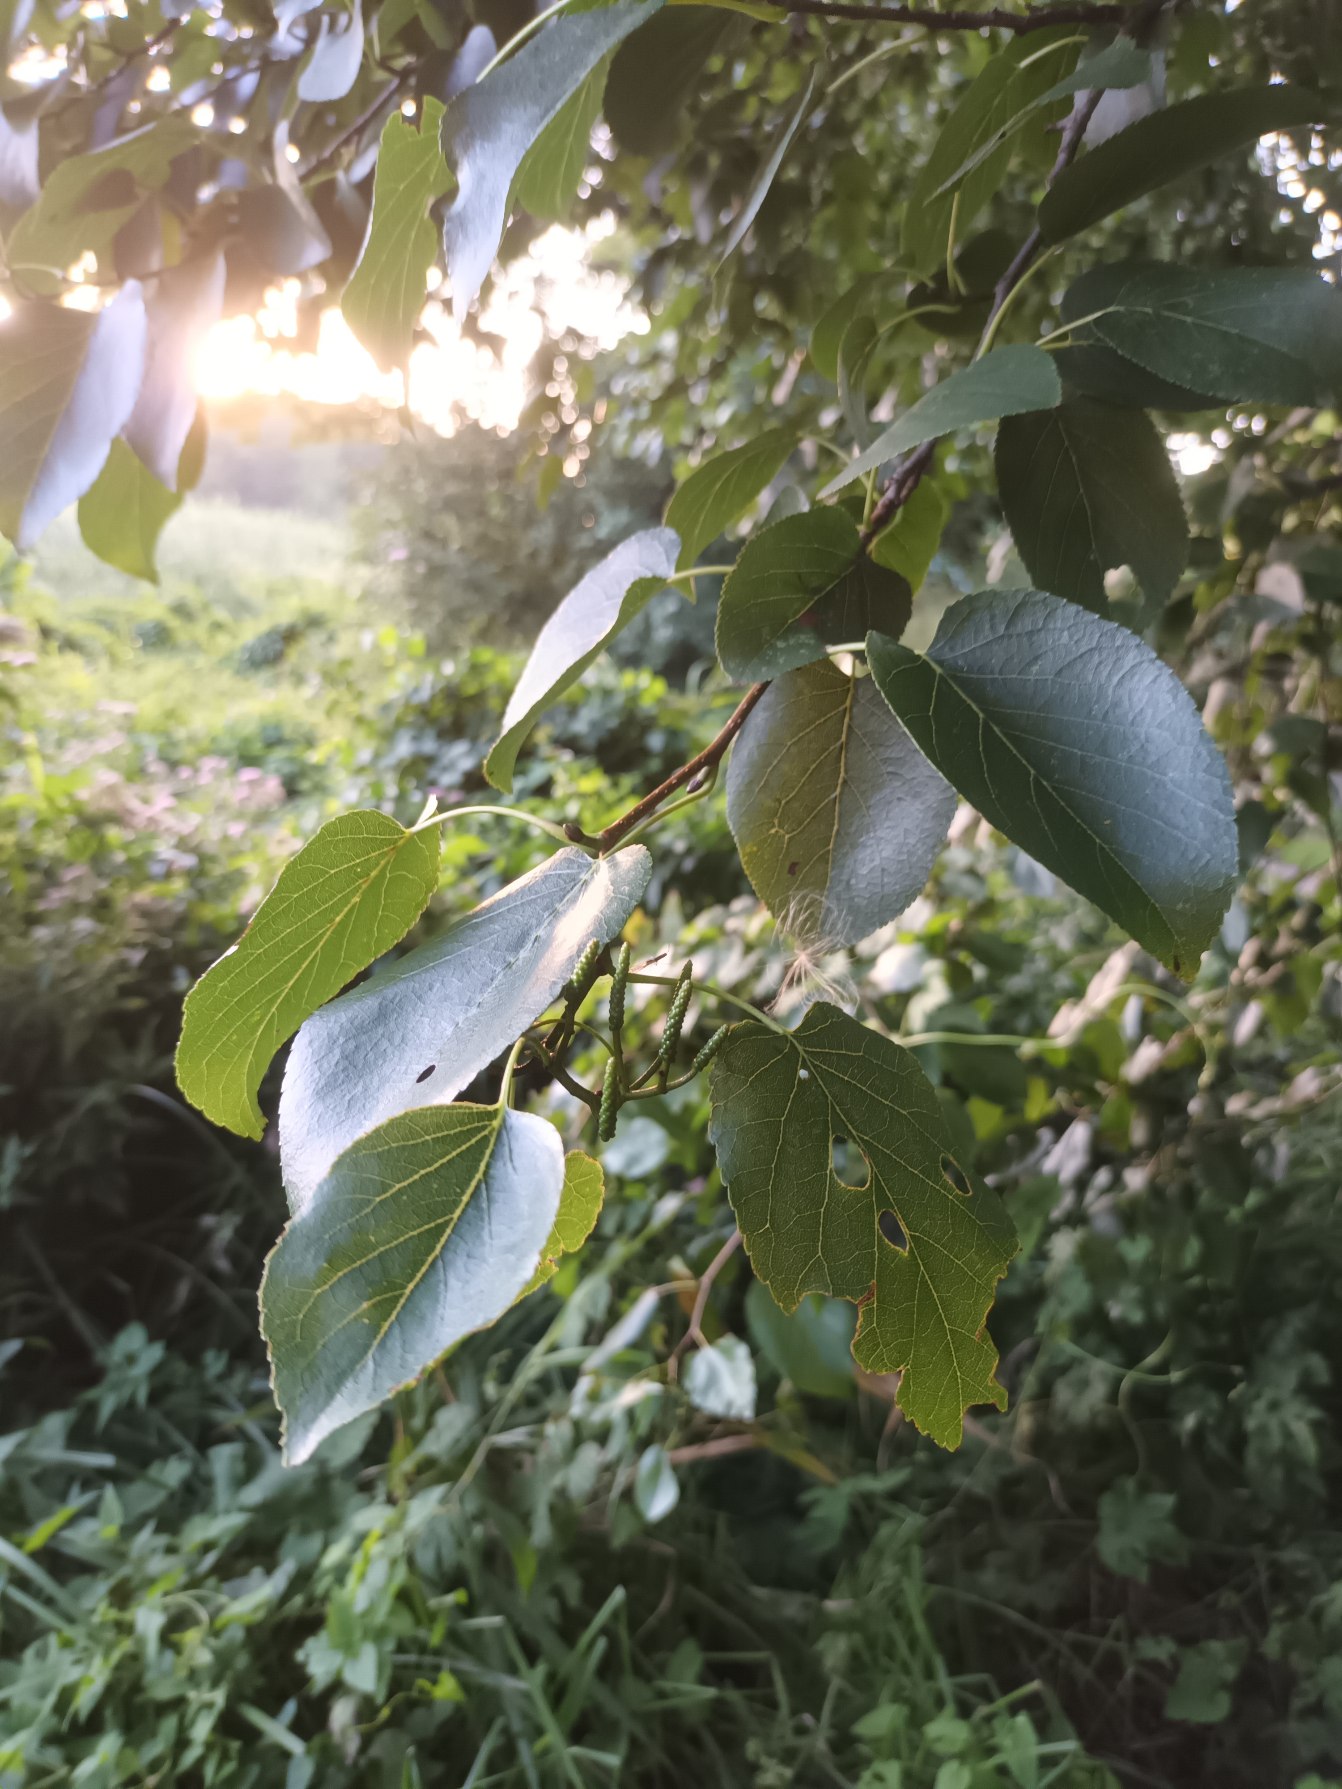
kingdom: Plantae
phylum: Tracheophyta
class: Magnoliopsida
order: Fagales
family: Betulaceae
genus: Alnus
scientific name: Alnus cordata
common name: Hjertebladet el
